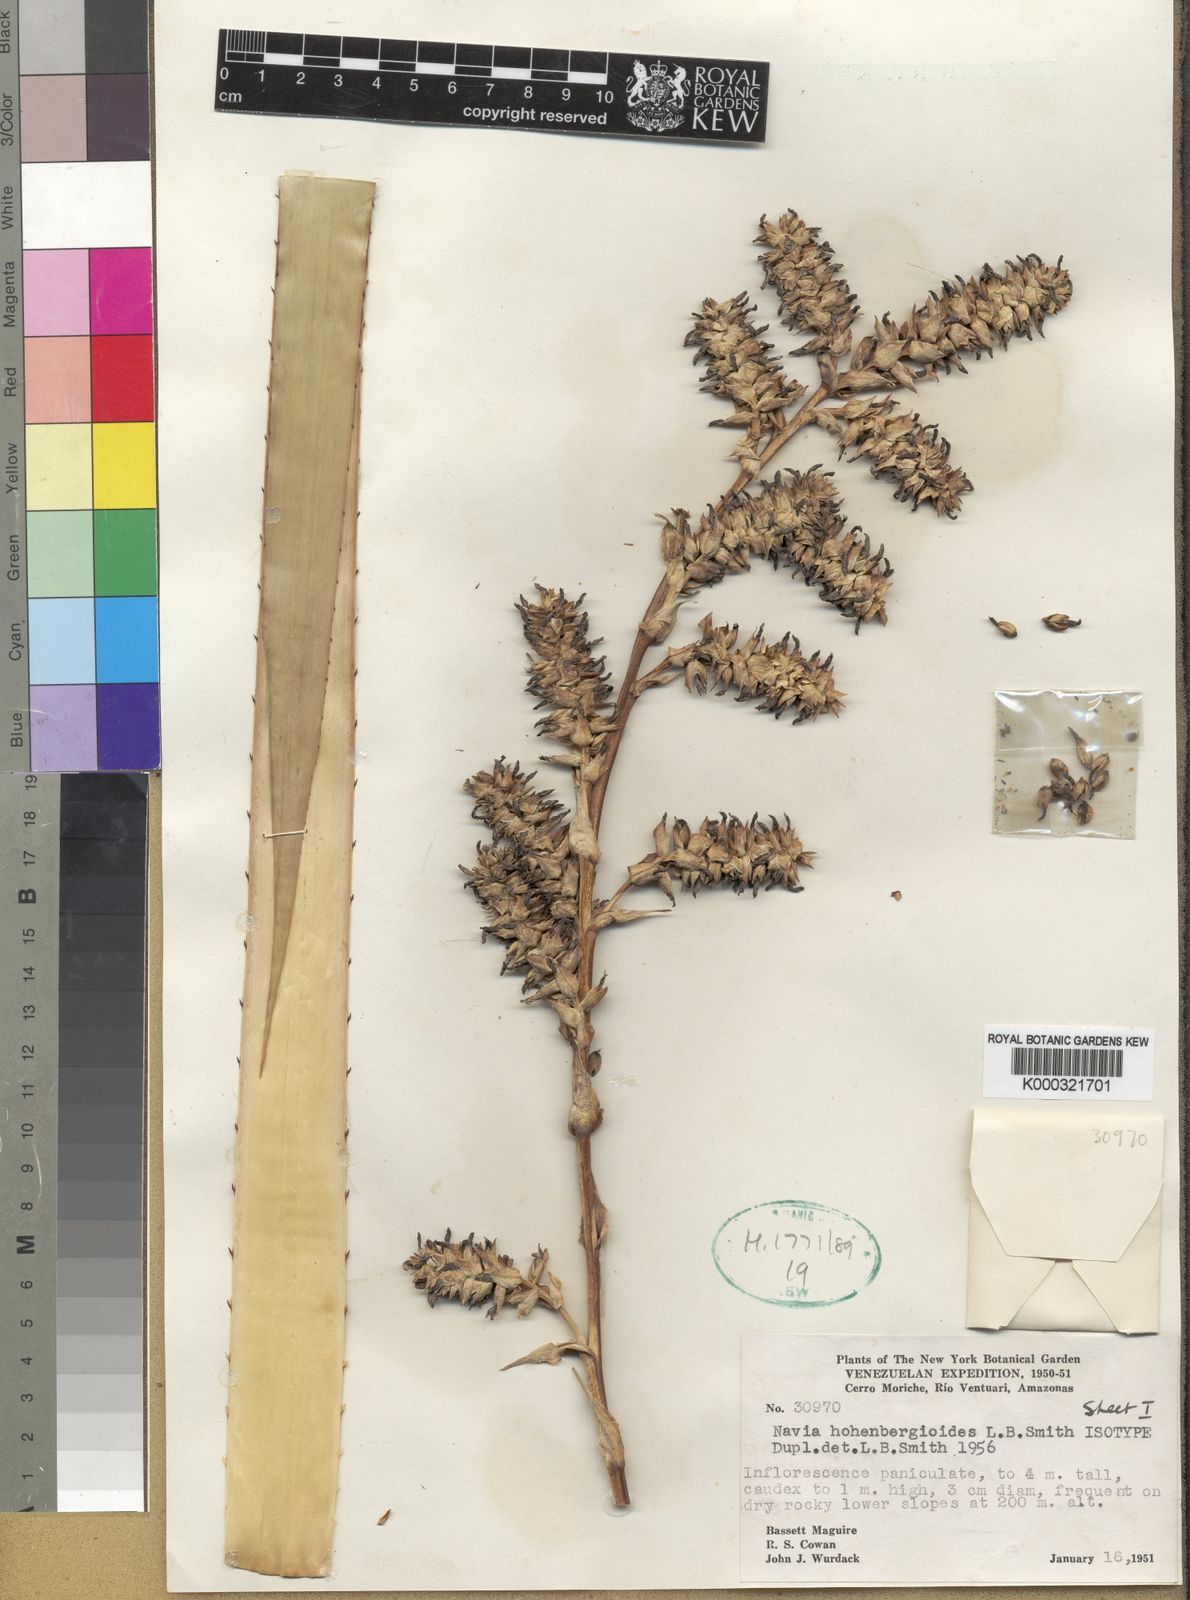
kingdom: Plantae
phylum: Tracheophyta
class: Liliopsida
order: Poales
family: Bromeliaceae
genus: Navia
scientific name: Navia hohenbergioides
